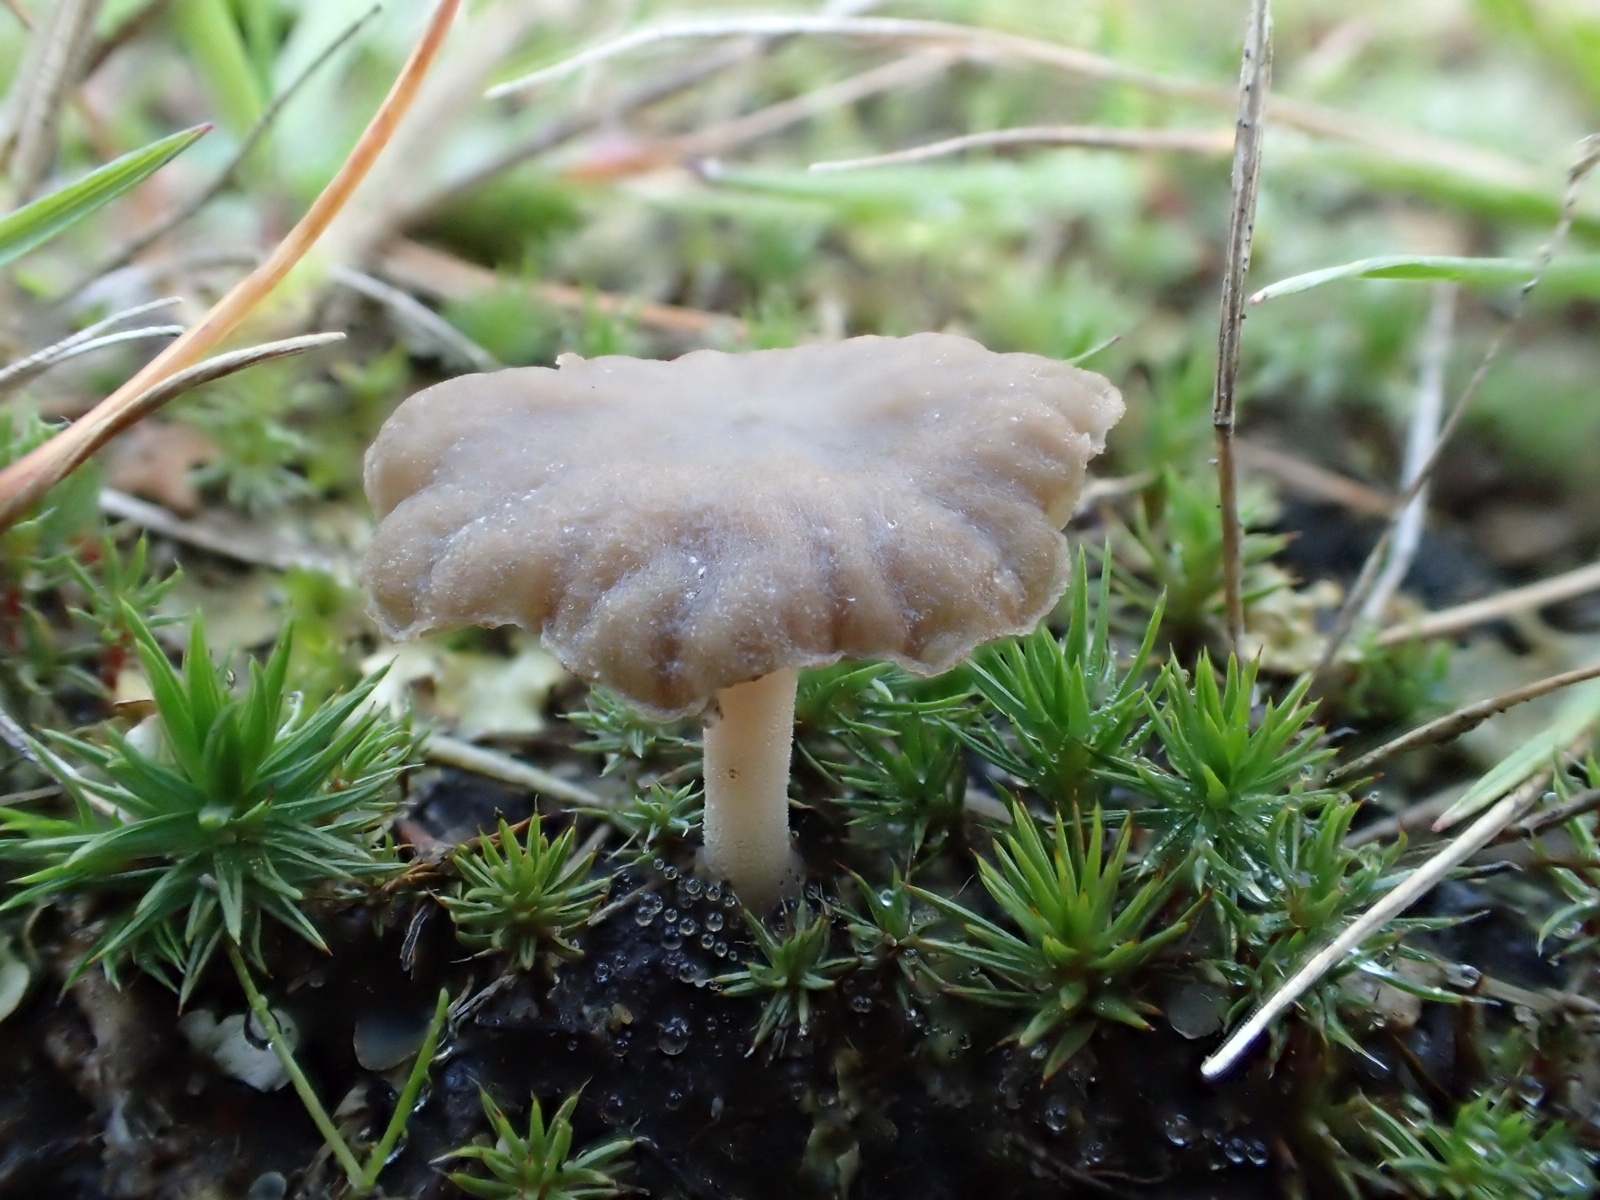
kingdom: Fungi
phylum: Basidiomycota
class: Agaricomycetes
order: Agaricales
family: Hygrophoraceae
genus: Arrhenia
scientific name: Arrhenia peltigerina
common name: skjoldlav-fontænehat
